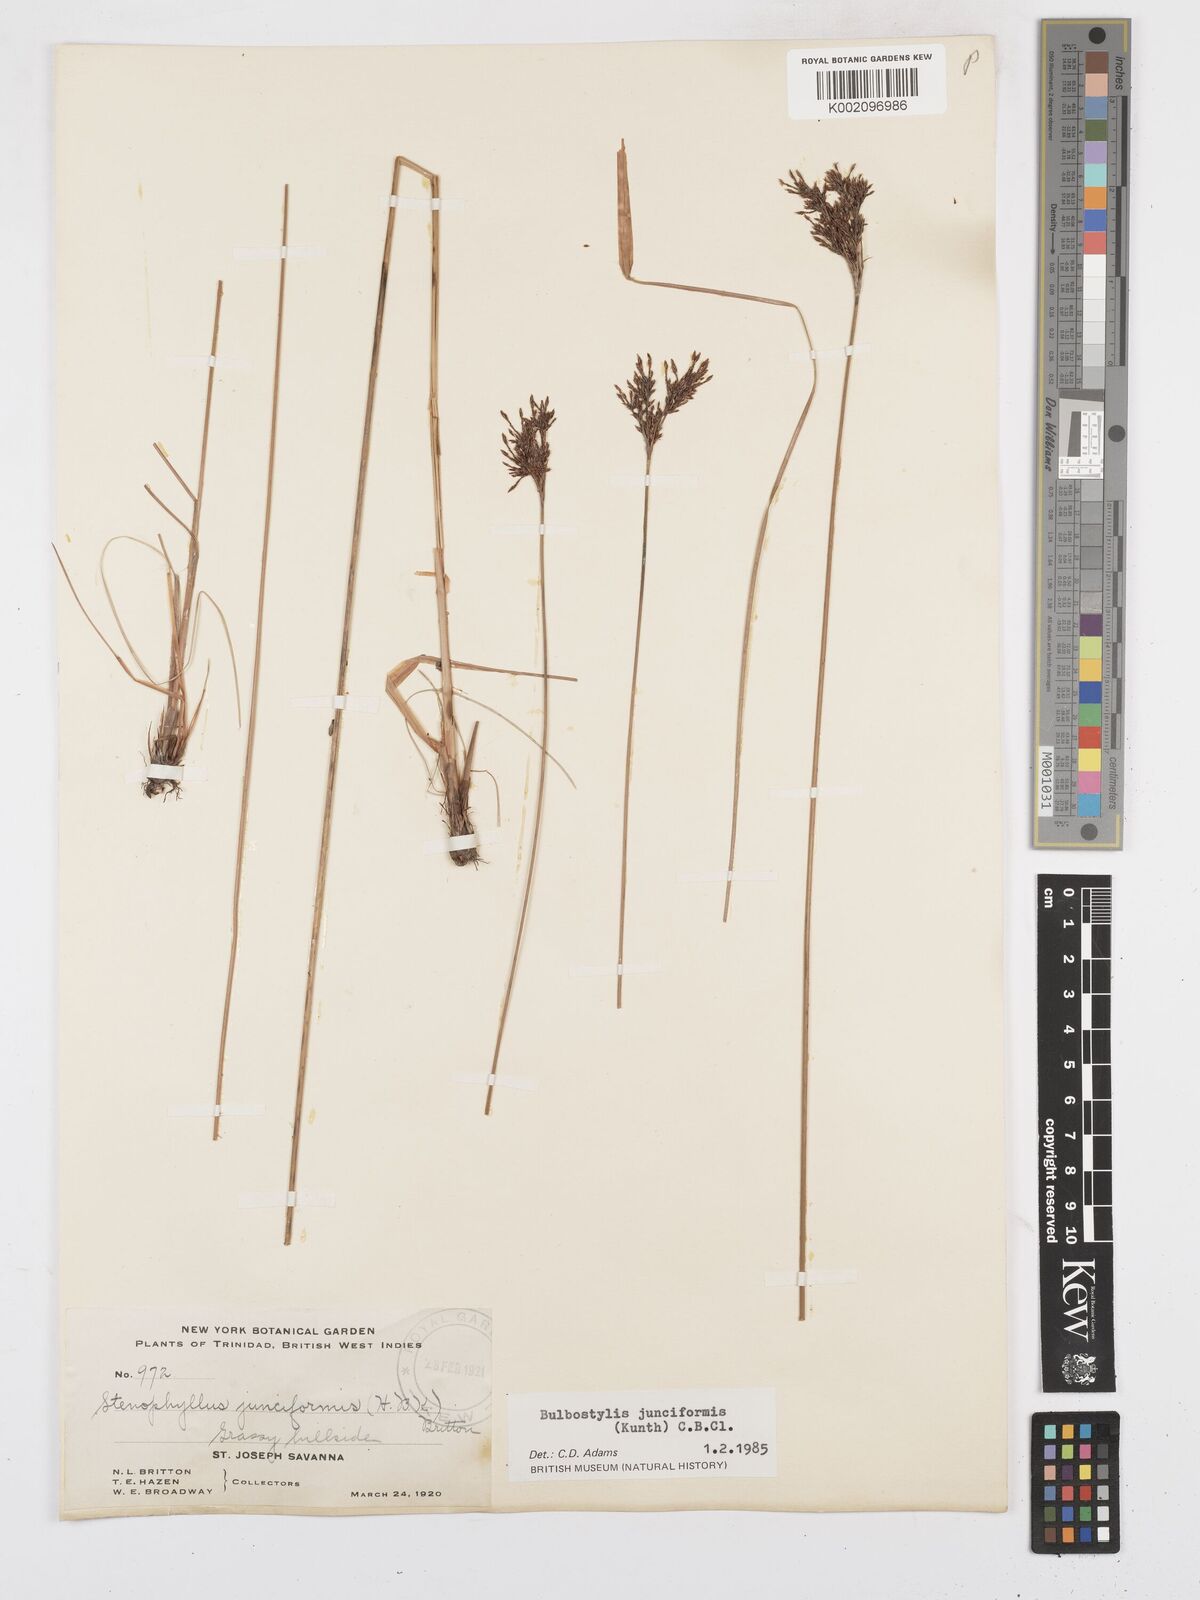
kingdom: Plantae
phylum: Tracheophyta
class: Liliopsida
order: Poales
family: Cyperaceae
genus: Bulbostylis
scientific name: Bulbostylis junciformis
